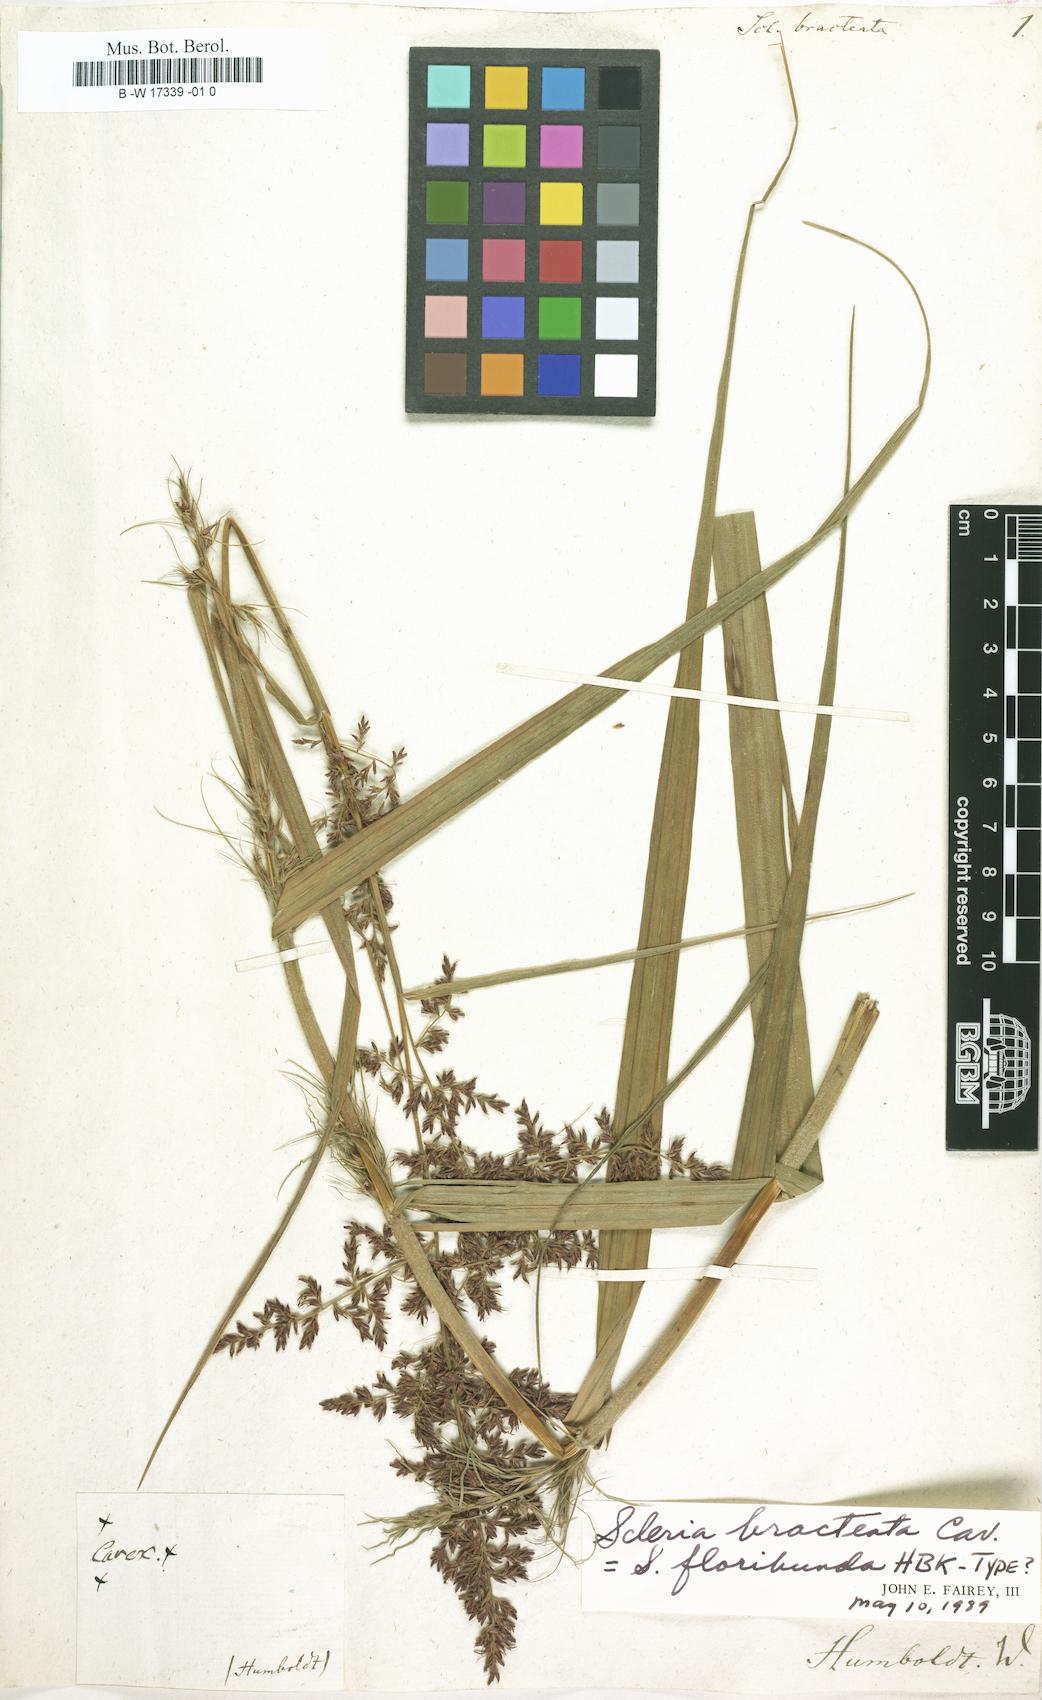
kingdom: Plantae
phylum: Tracheophyta
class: Liliopsida
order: Poales
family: Cyperaceae
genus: Scleria
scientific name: Scleria bracteata
